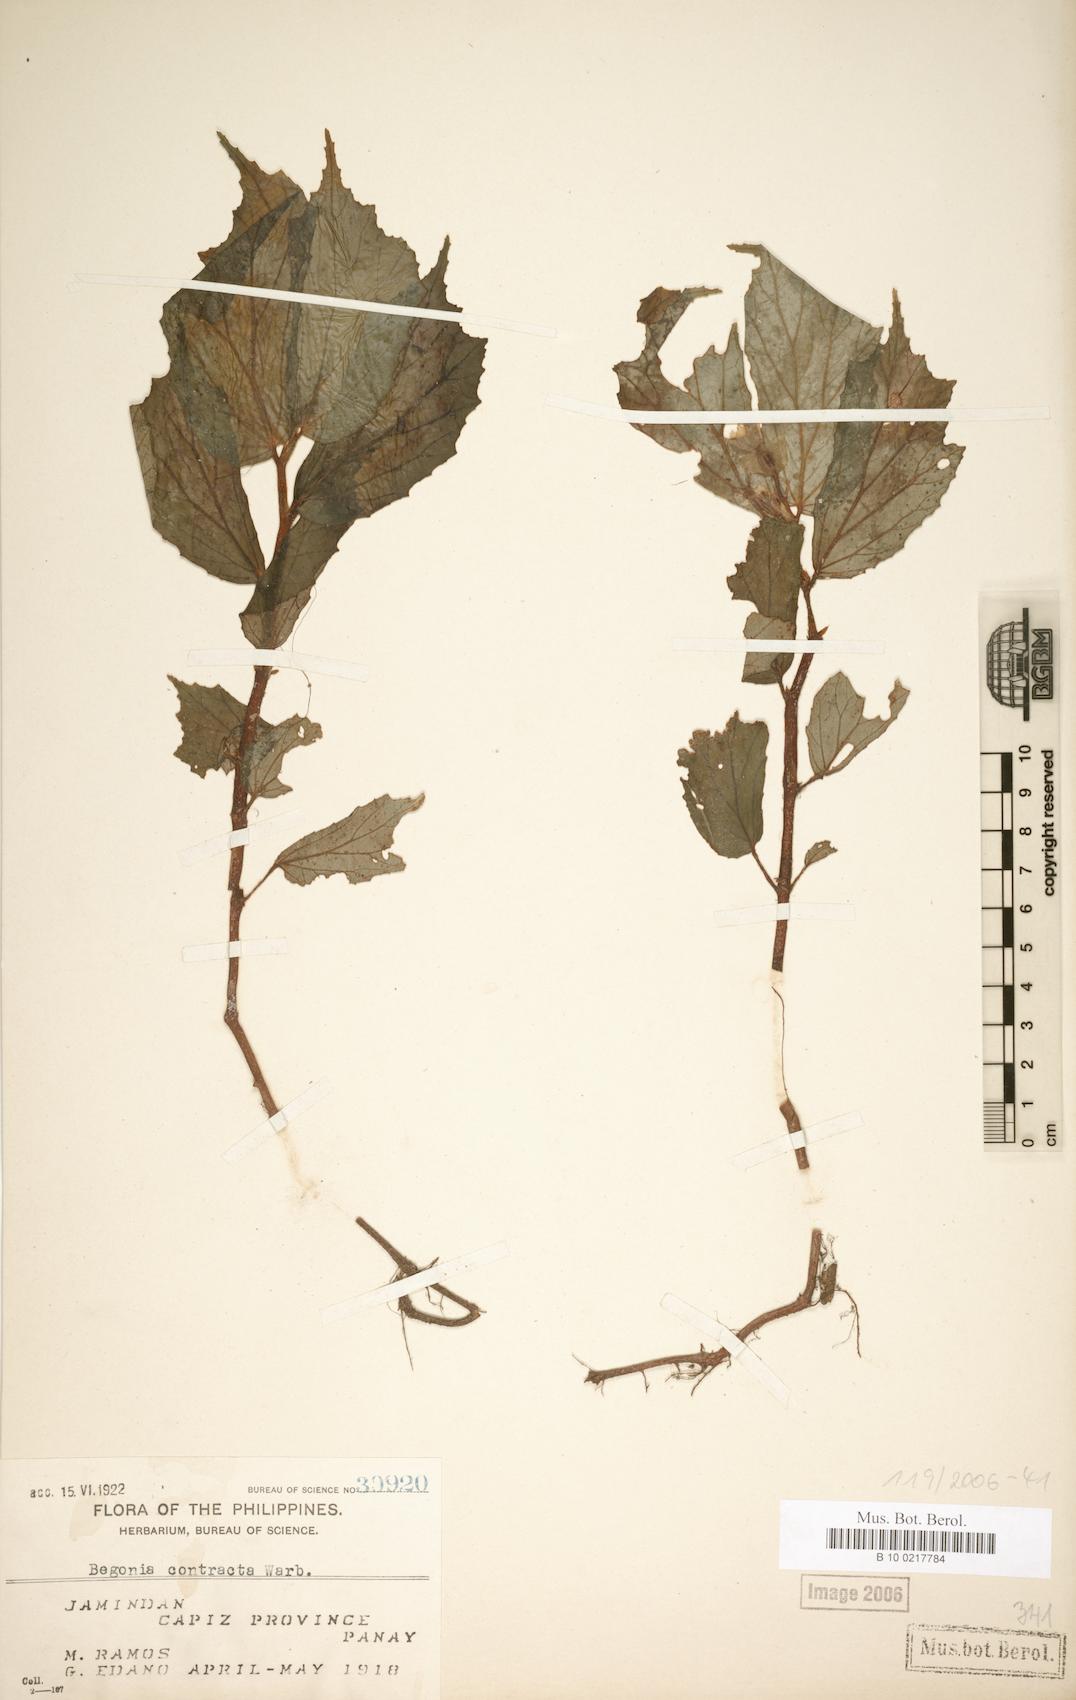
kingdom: Plantae
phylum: Tracheophyta
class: Magnoliopsida
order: Cucurbitales
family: Begoniaceae
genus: Begonia
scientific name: Begonia contracta
